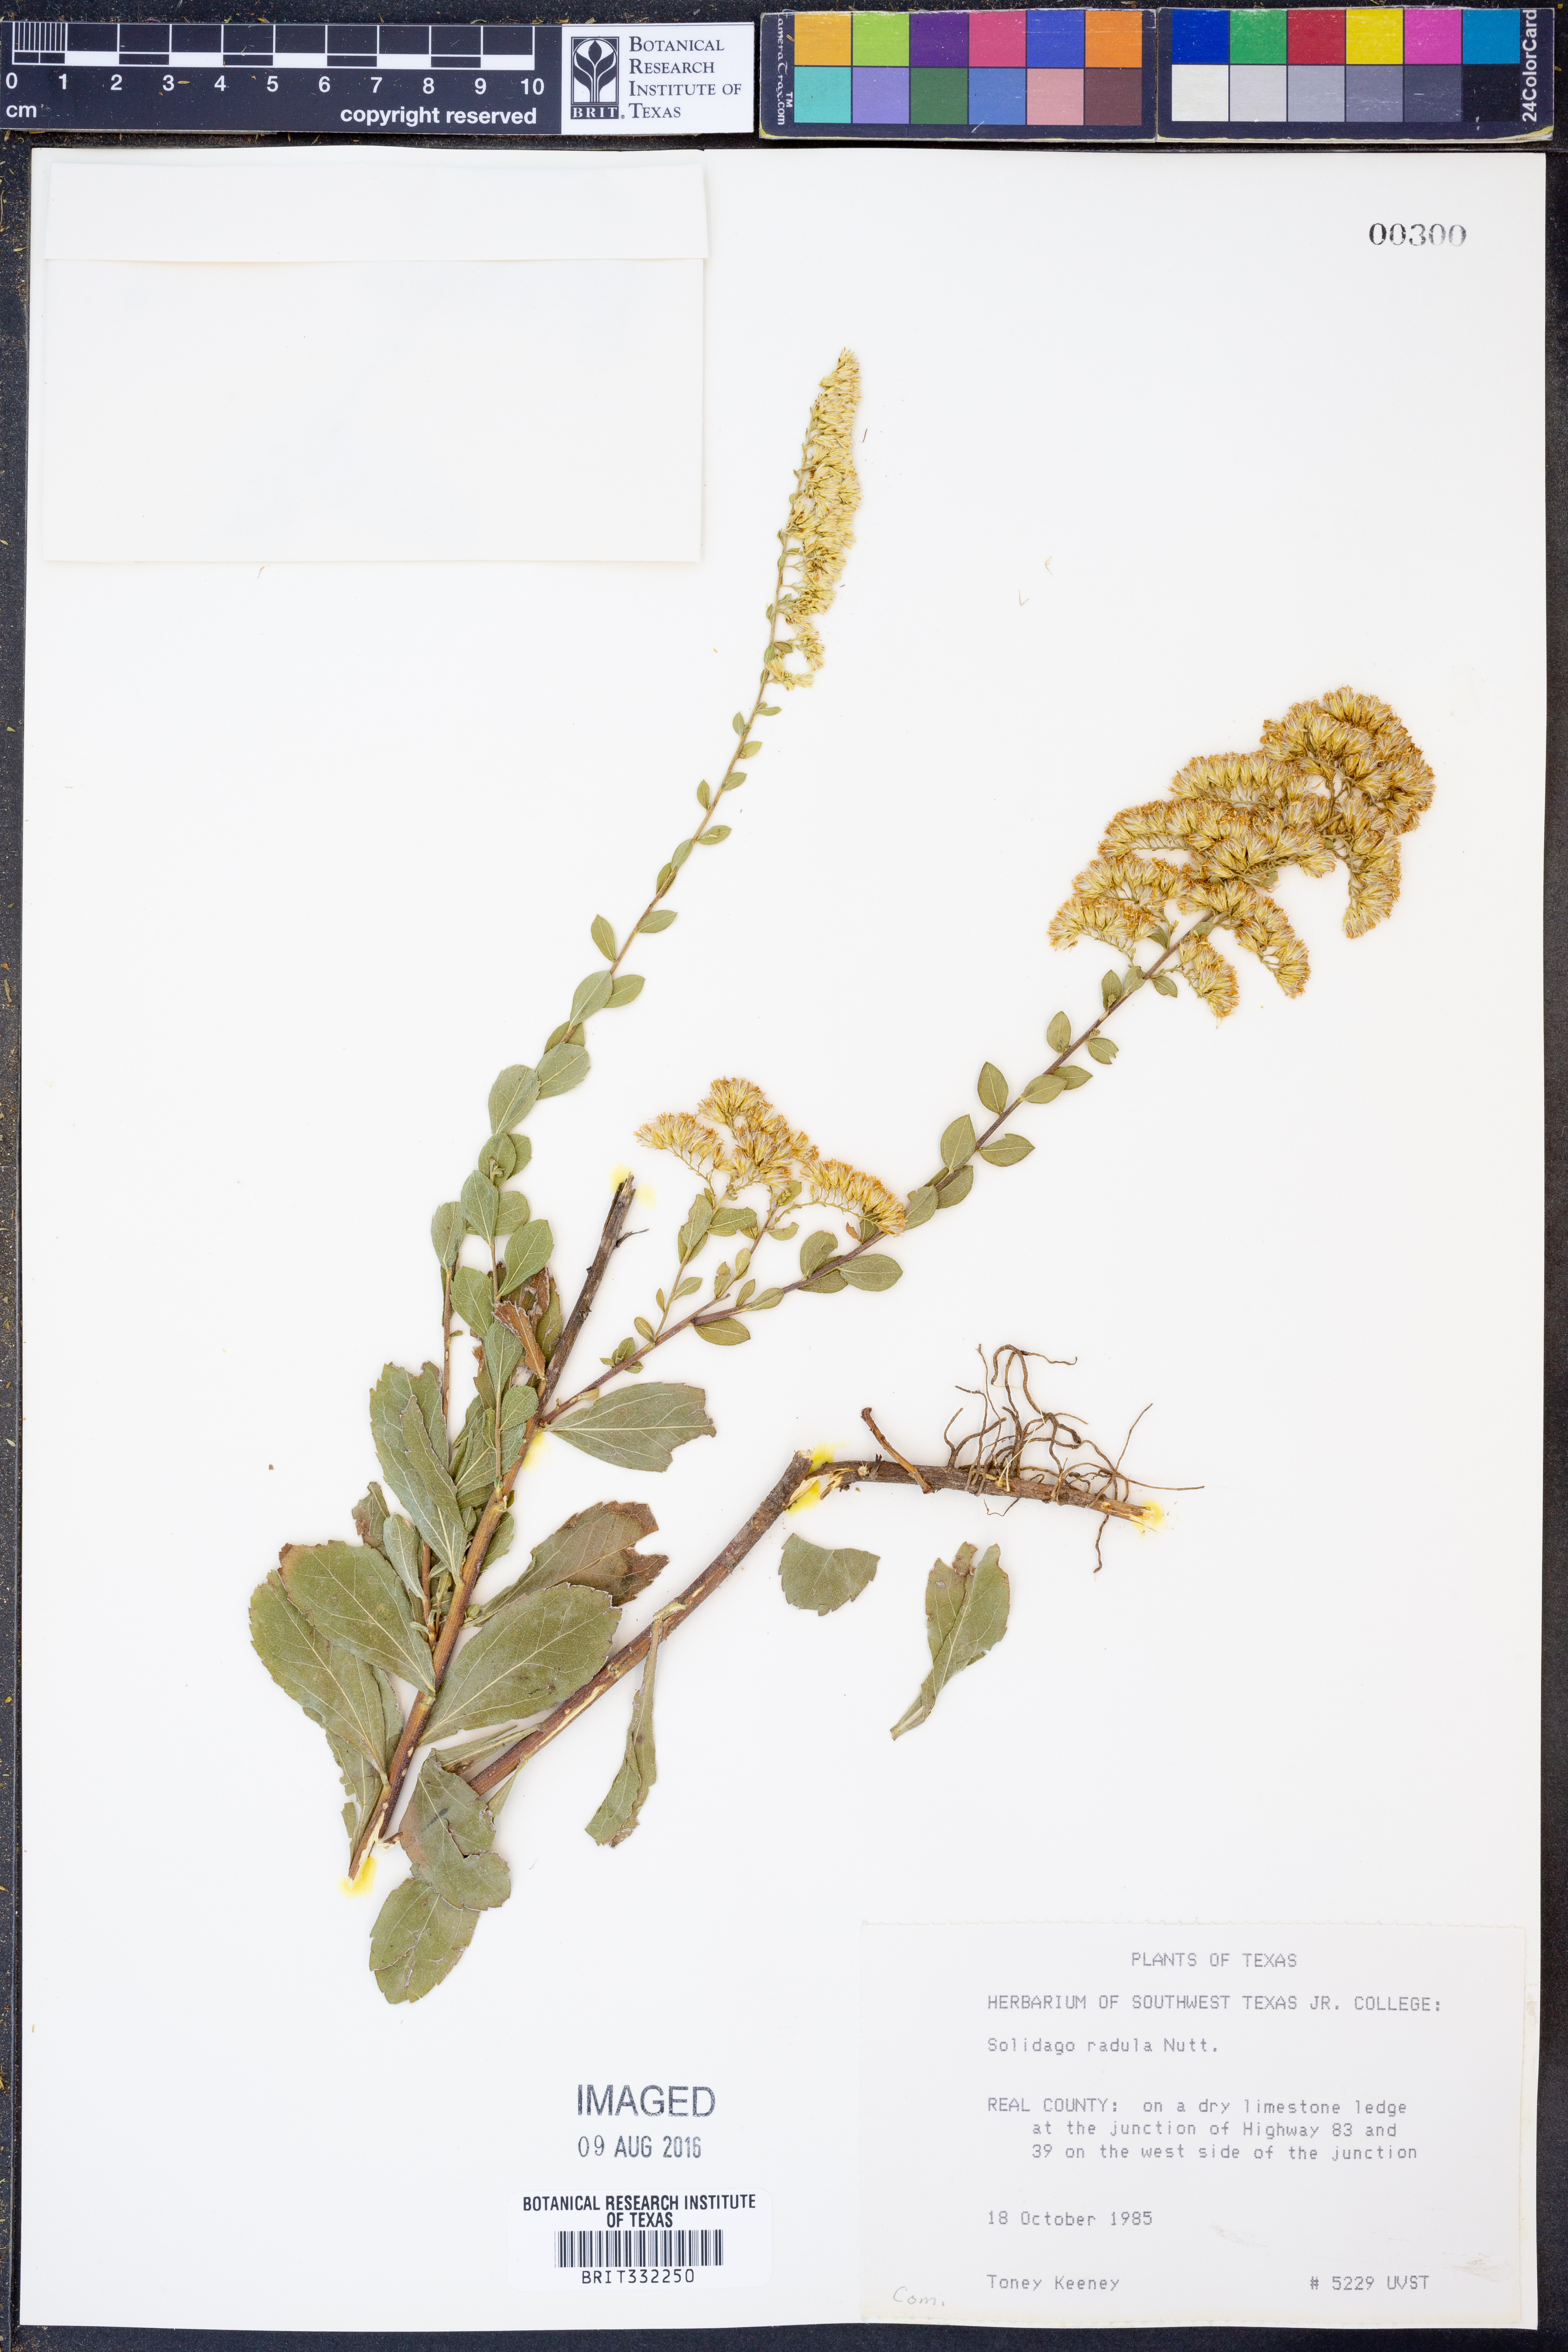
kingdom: Plantae
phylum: Tracheophyta
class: Magnoliopsida
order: Asterales
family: Asteraceae
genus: Solidago
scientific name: Solidago radula
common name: Western rough goldenrod
